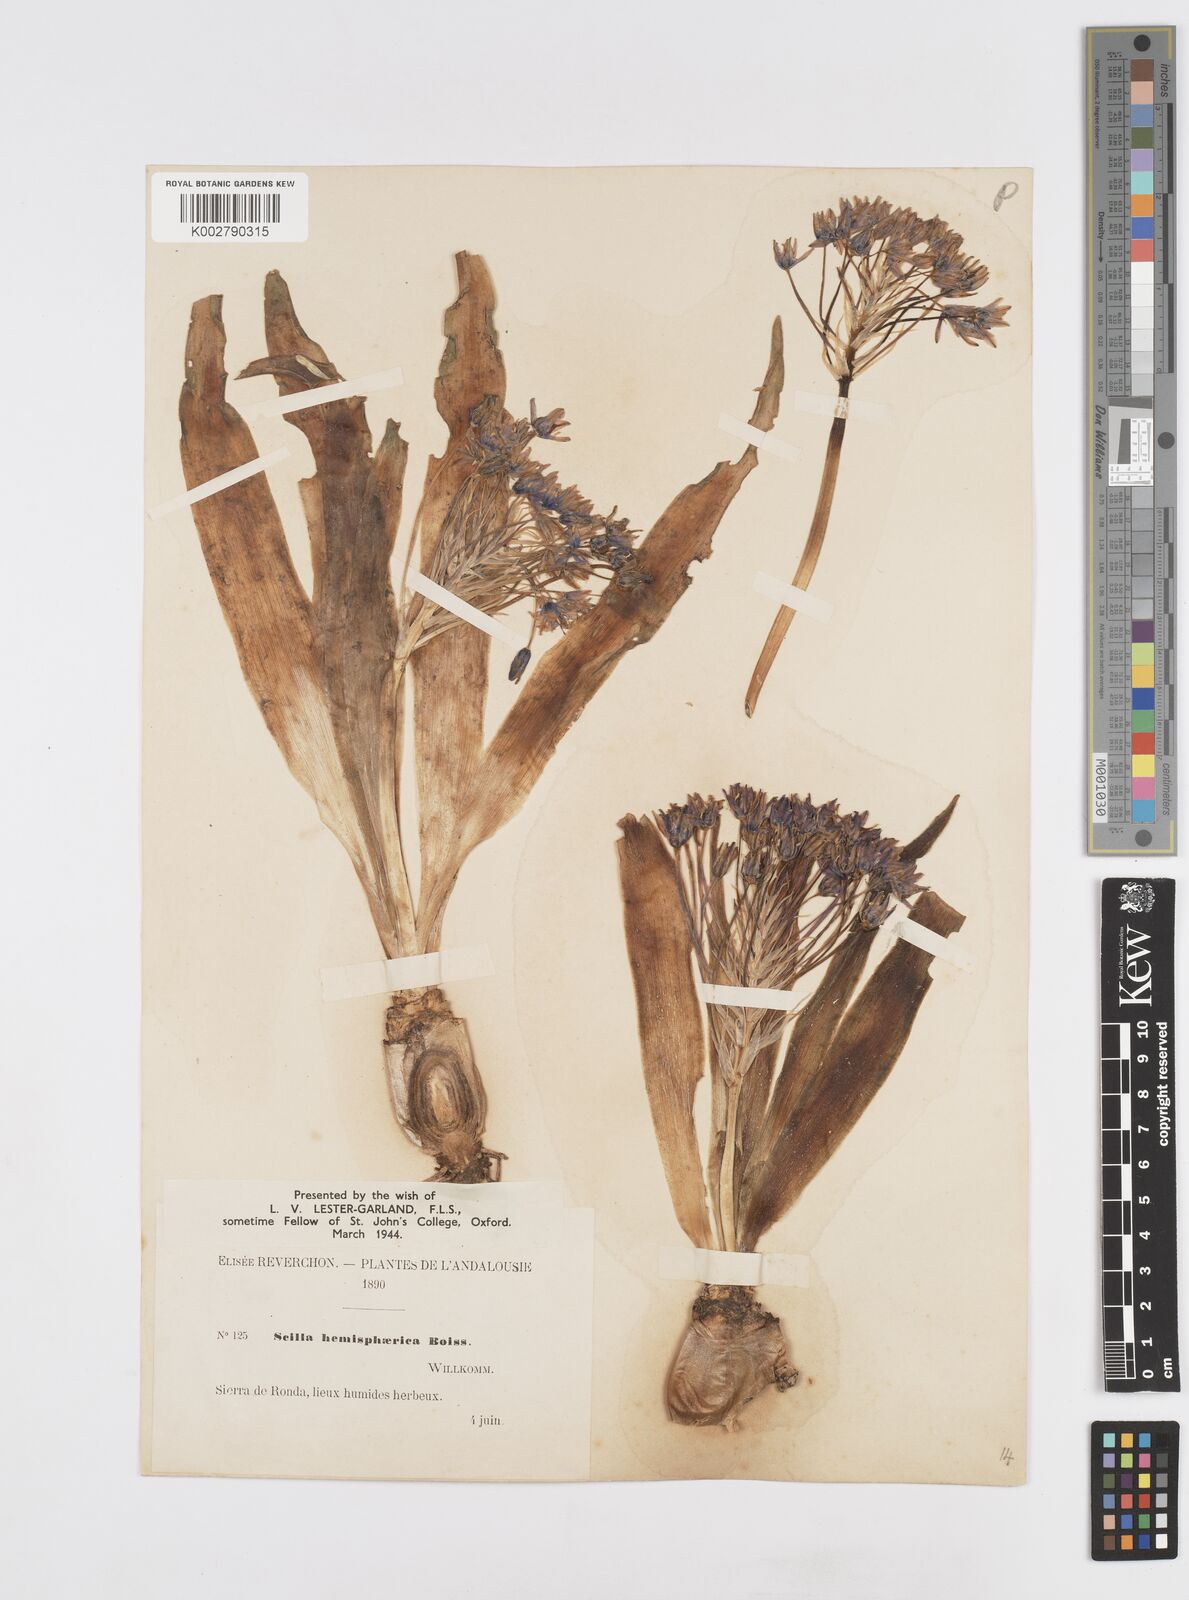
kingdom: Plantae
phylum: Tracheophyta
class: Liliopsida
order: Asparagales
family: Asparagaceae
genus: Scilla
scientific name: Scilla peruviana
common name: Portuguese squill
